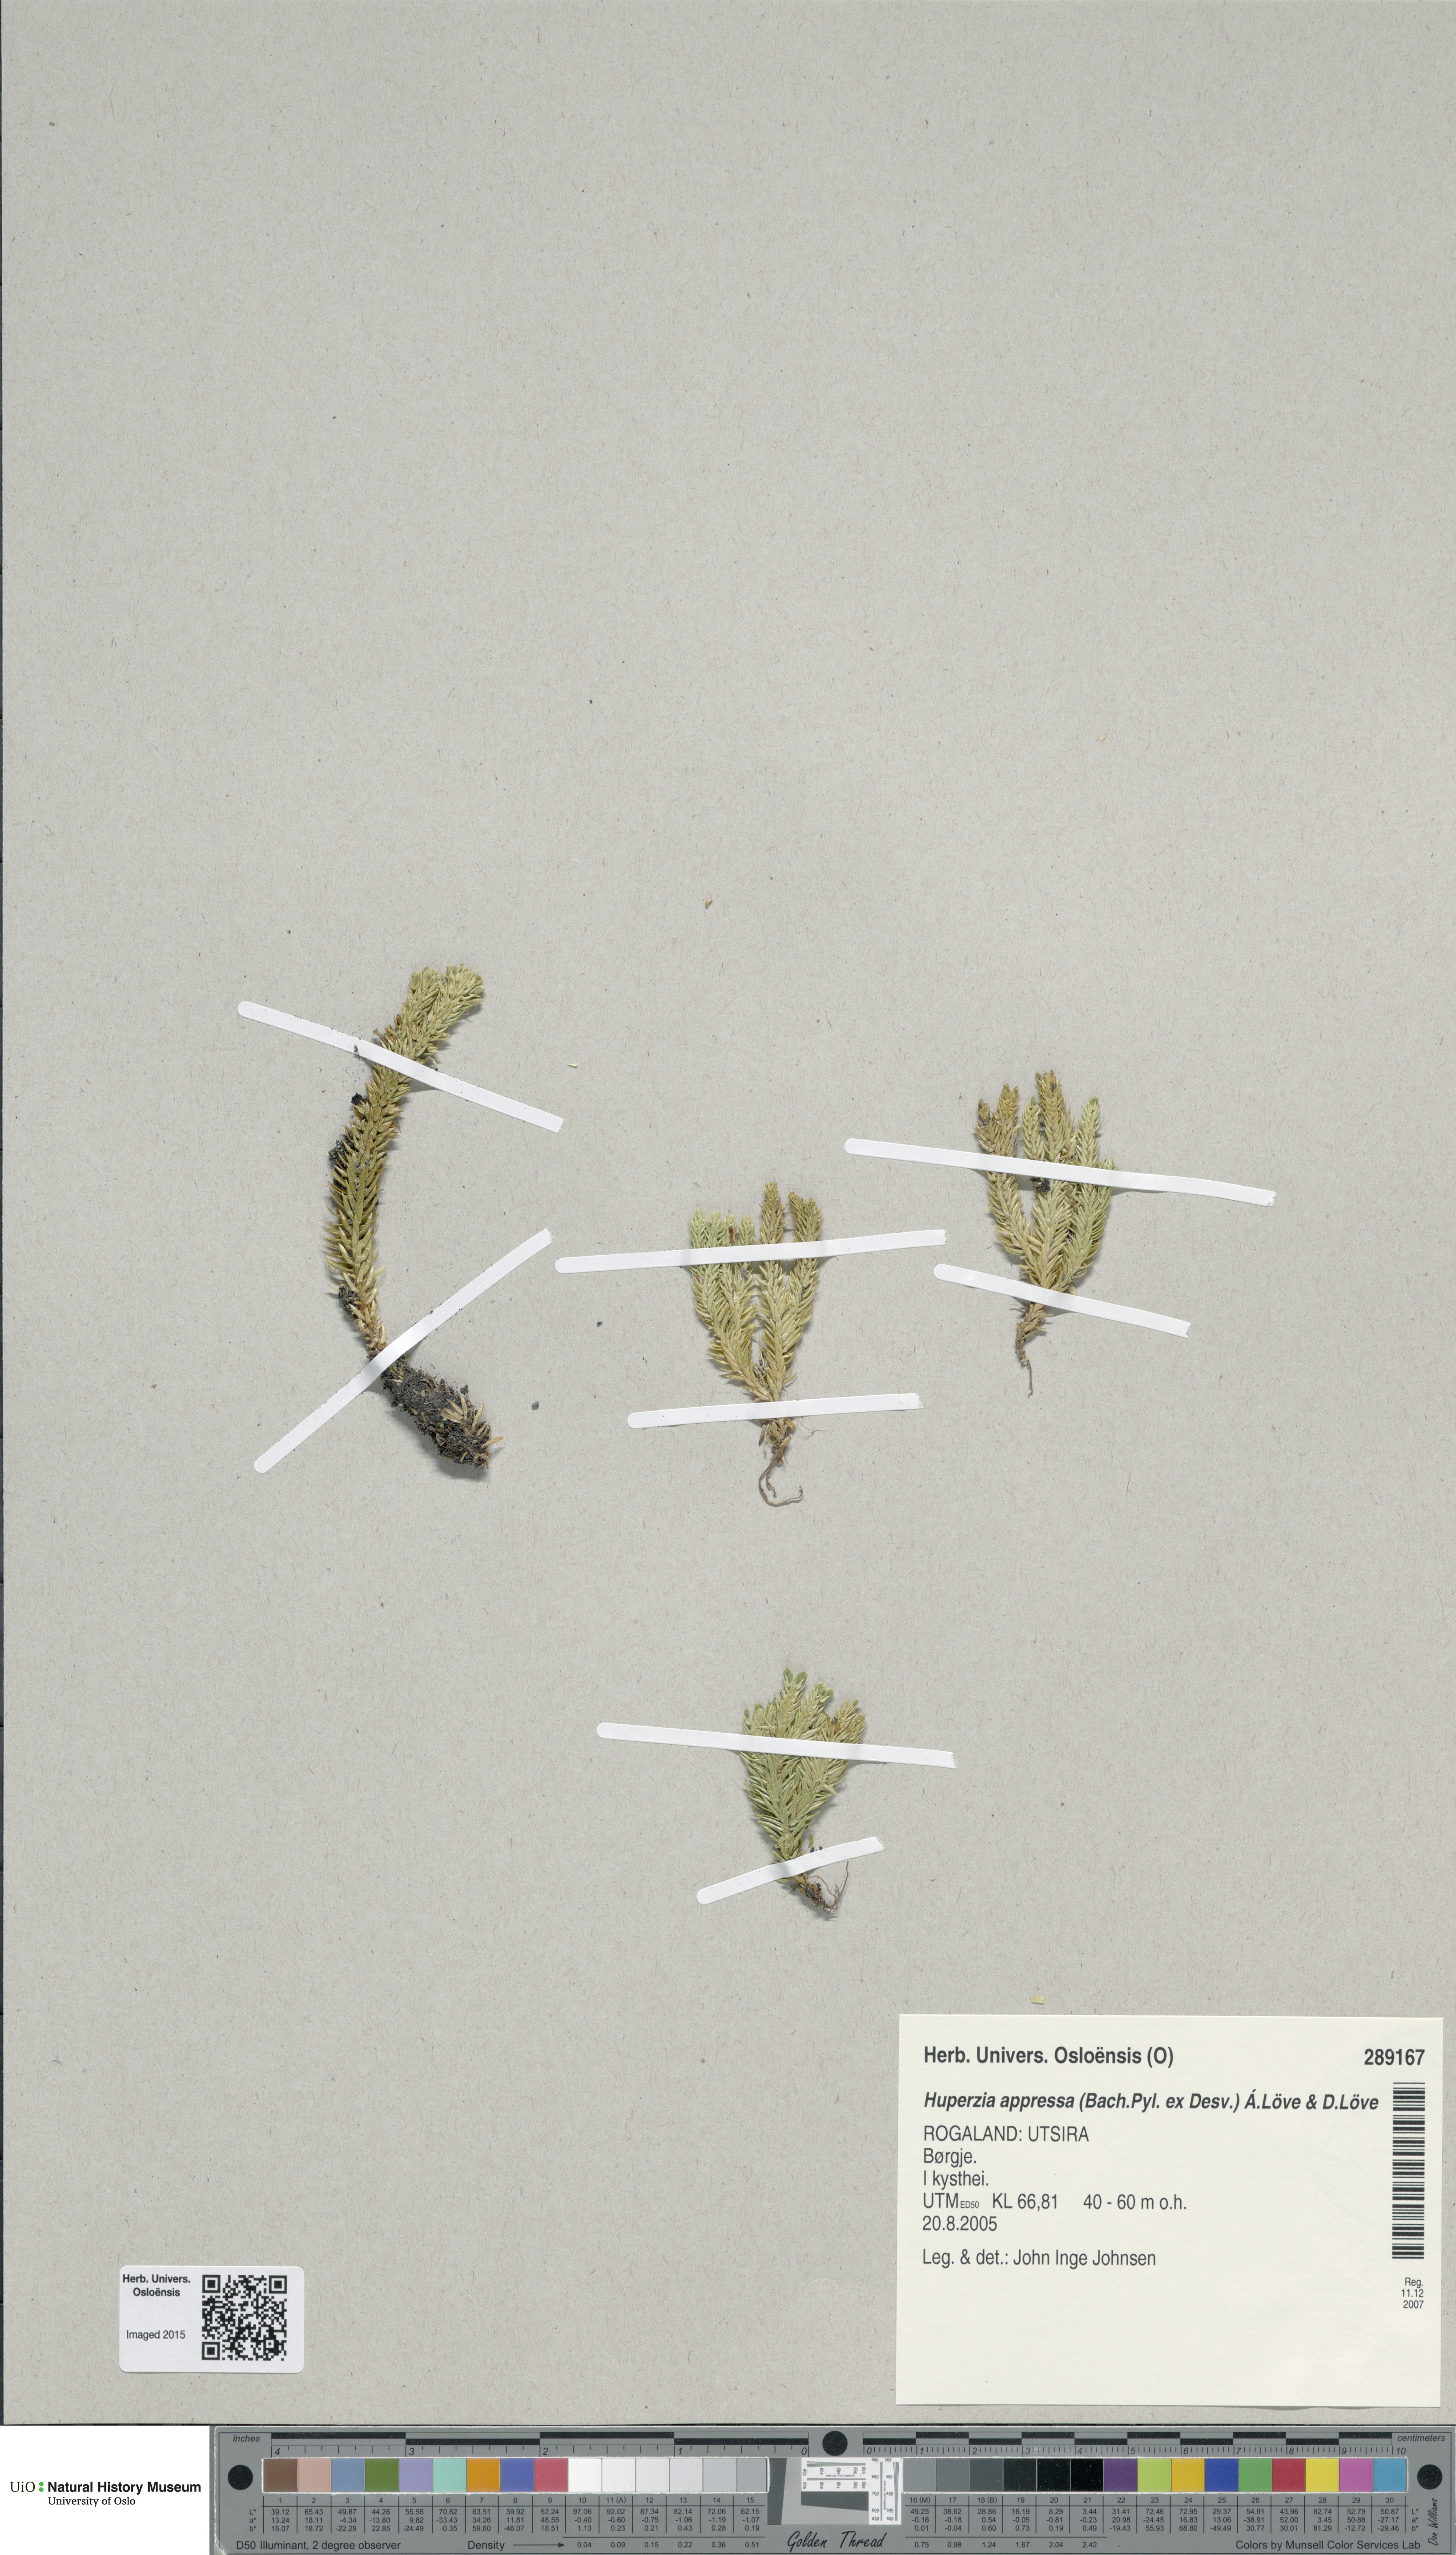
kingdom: Plantae
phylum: Tracheophyta
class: Lycopodiopsida
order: Lycopodiales
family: Lycopodiaceae
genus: Huperzia
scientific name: Huperzia selago
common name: Northern firmoss
